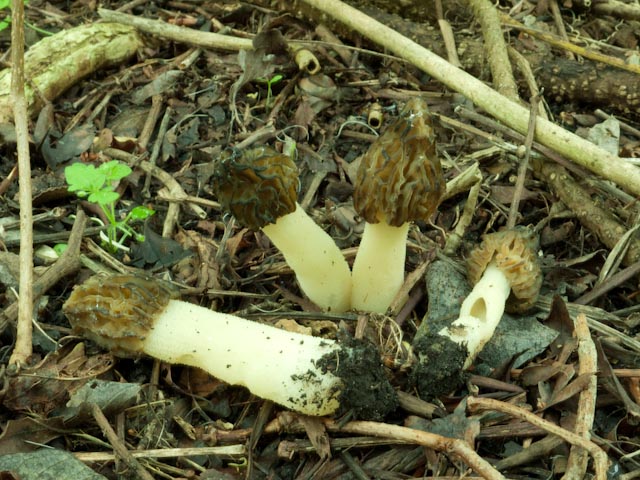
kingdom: Fungi
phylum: Ascomycota
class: Pezizomycetes
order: Pezizales
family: Morchellaceae
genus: Morchella
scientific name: Morchella semilibera
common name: hætte-morkel
